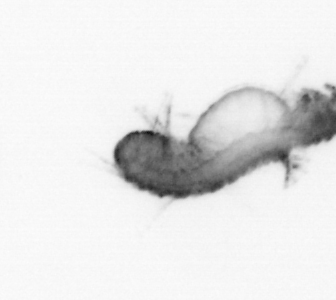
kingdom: Animalia
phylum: Annelida
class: Polychaeta
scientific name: Polychaeta
